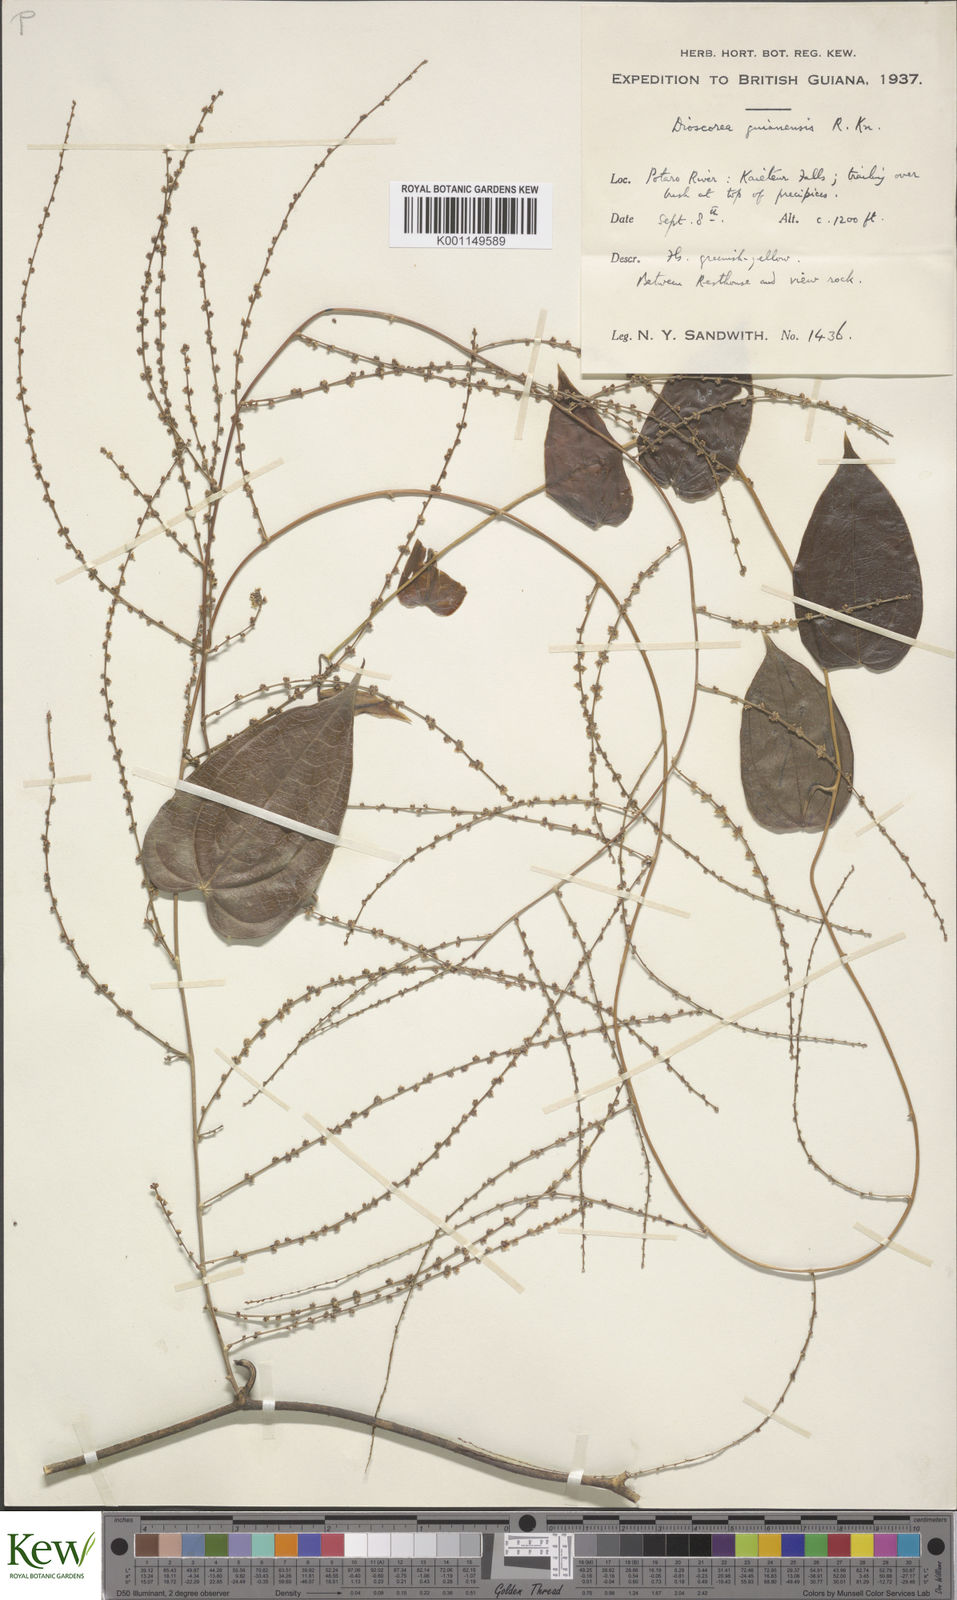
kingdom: Plantae
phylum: Tracheophyta
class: Liliopsida
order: Dioscoreales
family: Dioscoreaceae
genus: Dioscorea
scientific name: Dioscorea guianensis
